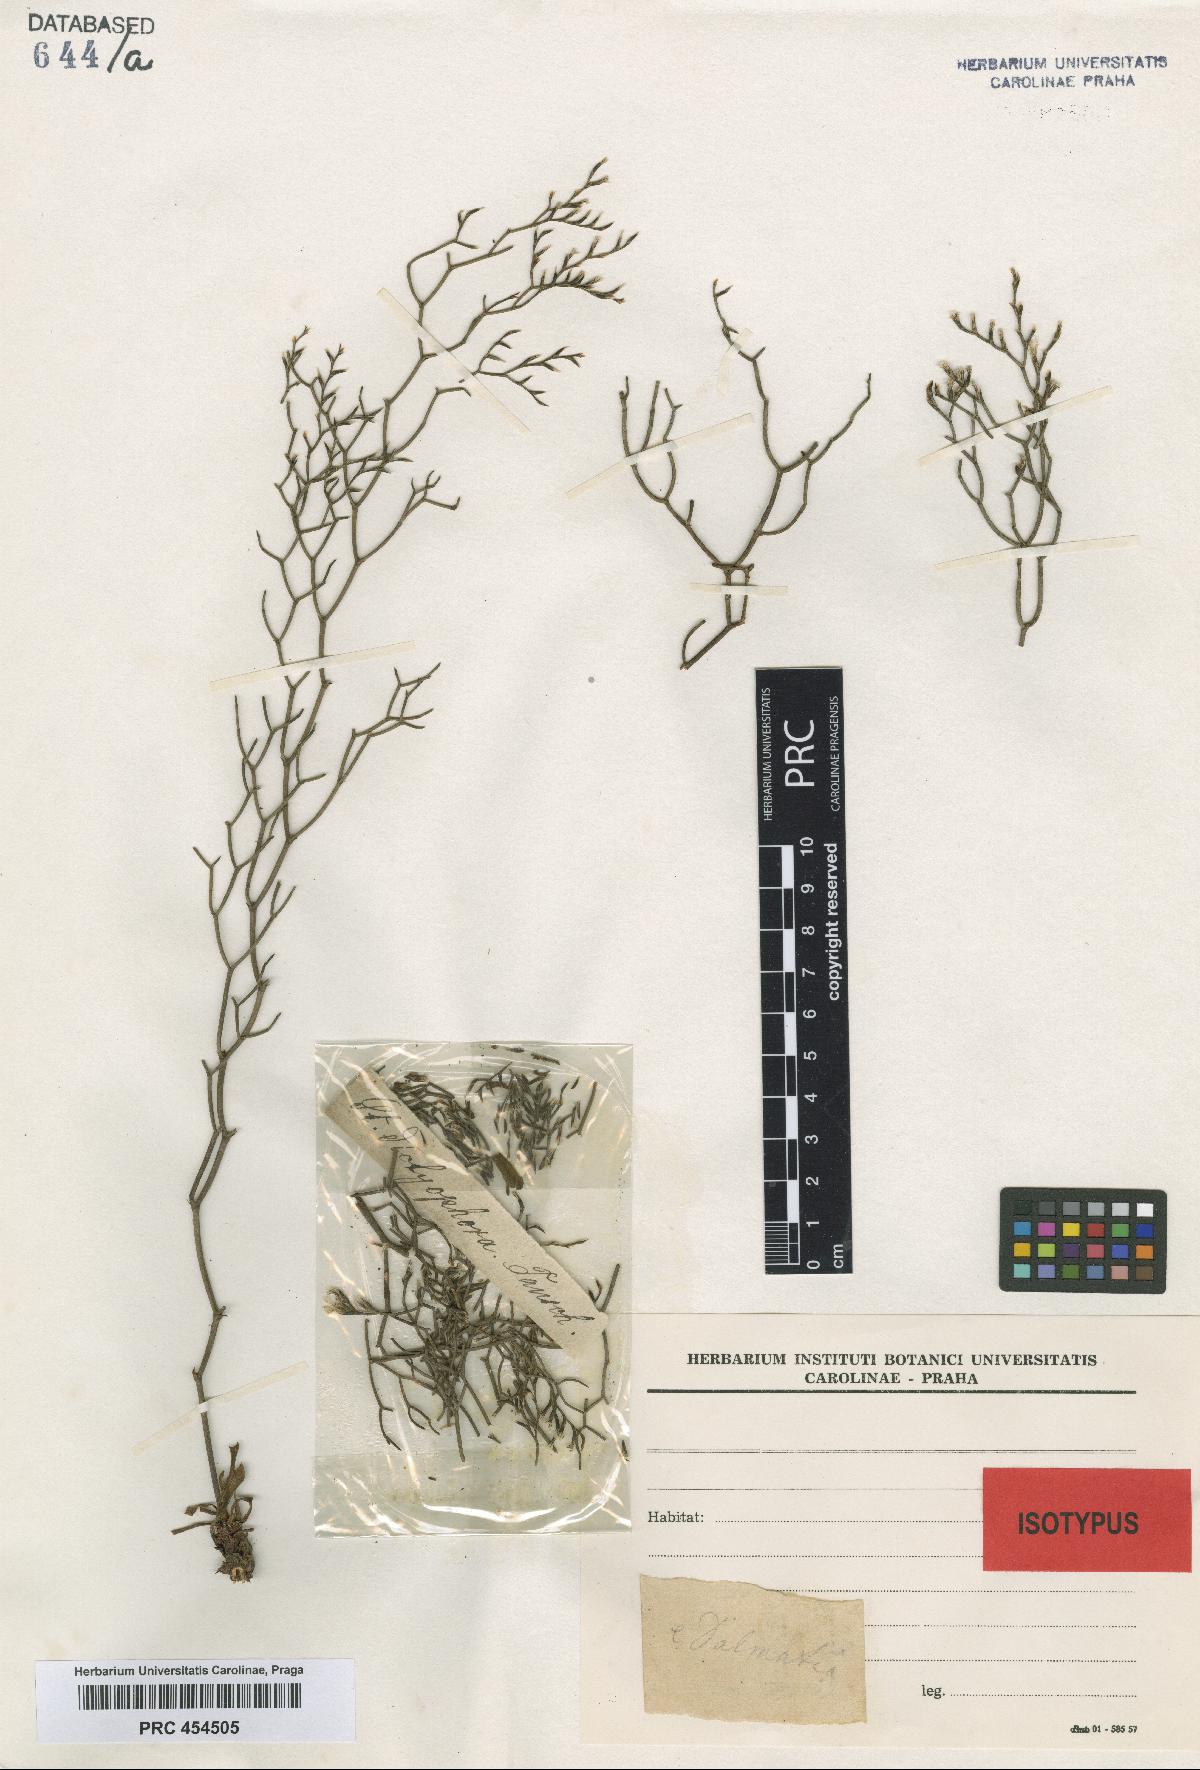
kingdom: Plantae
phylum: Tracheophyta
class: Magnoliopsida
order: Caryophyllales
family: Plumbaginaceae
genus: Limonium
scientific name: Limonium dictyophorum
